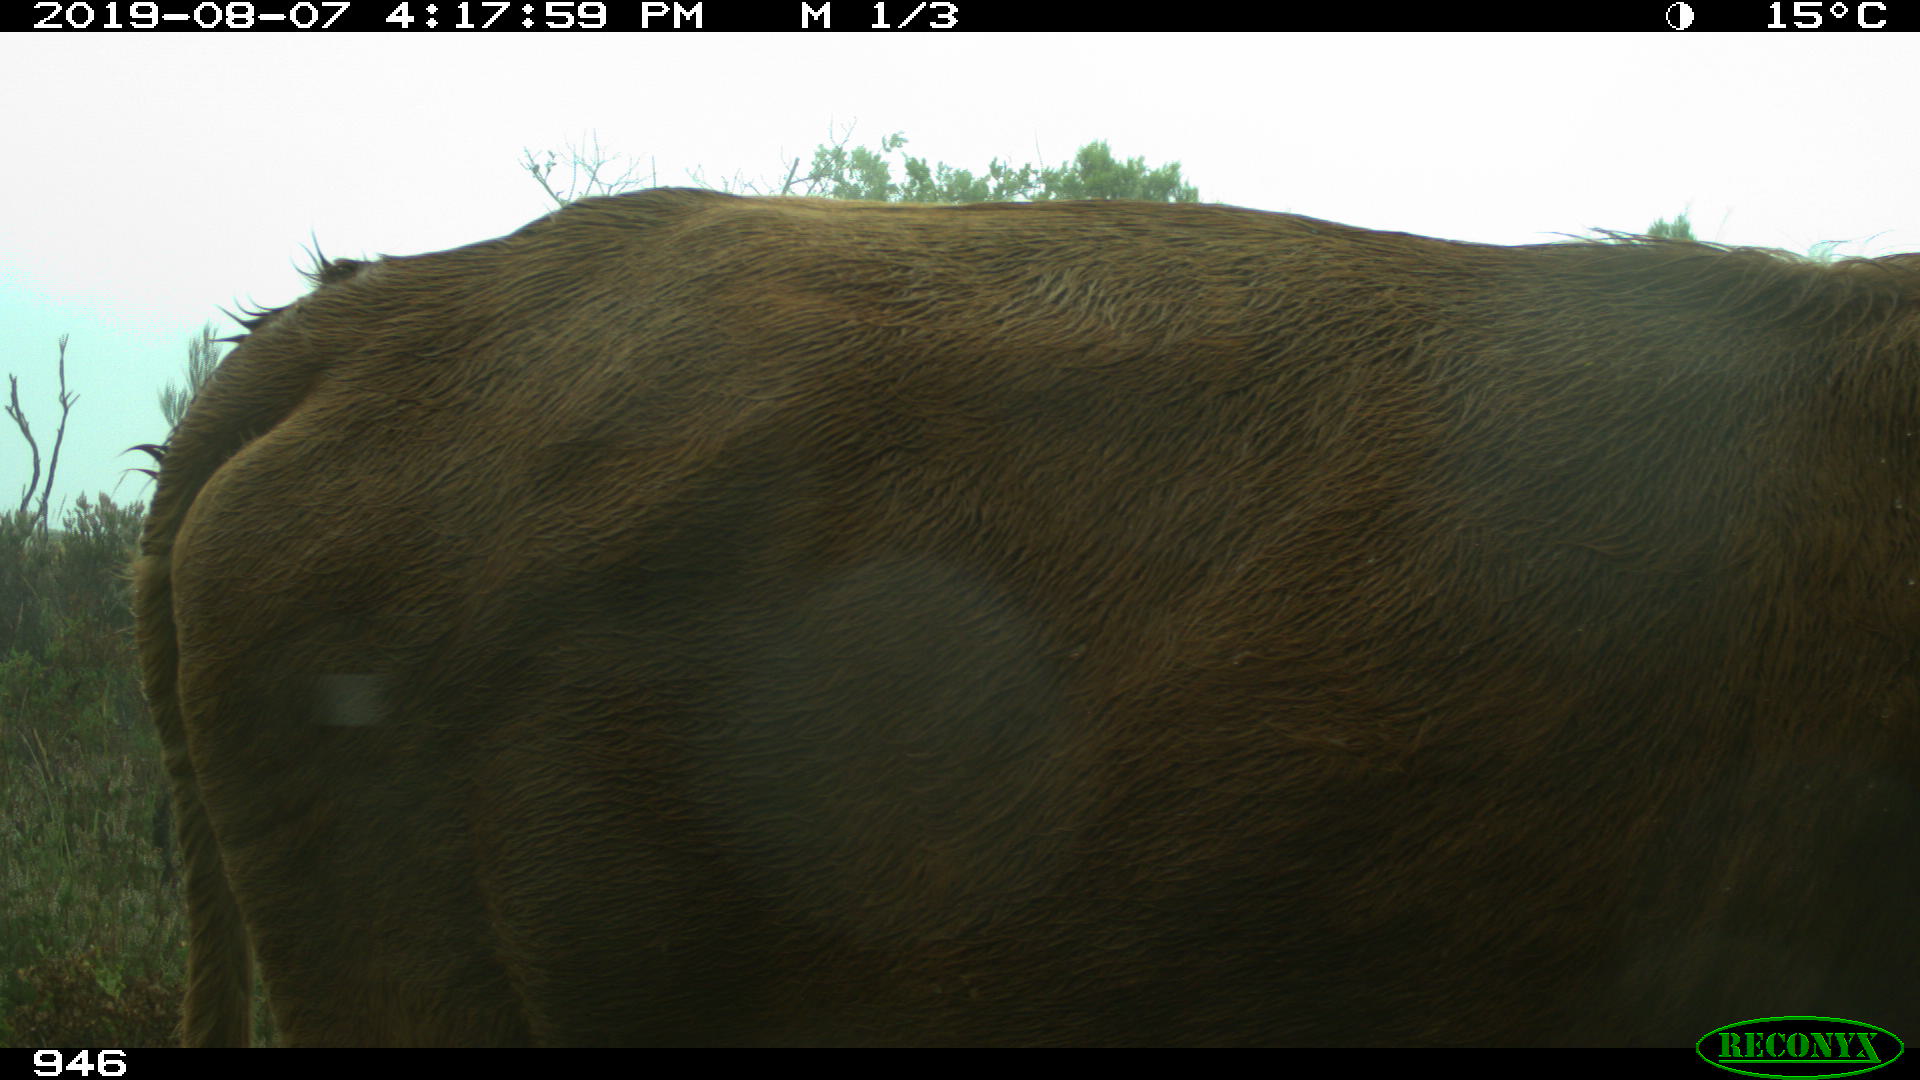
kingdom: Animalia
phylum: Chordata
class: Mammalia
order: Artiodactyla
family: Bovidae
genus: Bos
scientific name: Bos taurus
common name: Domesticated cattle
